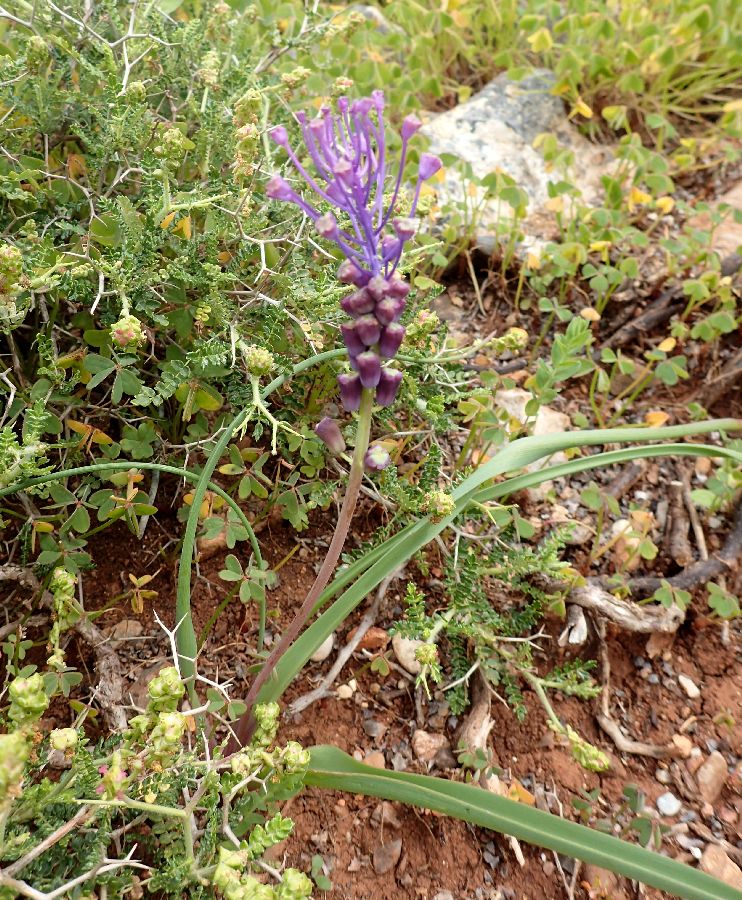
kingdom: Plantae
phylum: Tracheophyta
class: Liliopsida
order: Asparagales
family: Asparagaceae
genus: Muscari
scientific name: Muscari comosum
